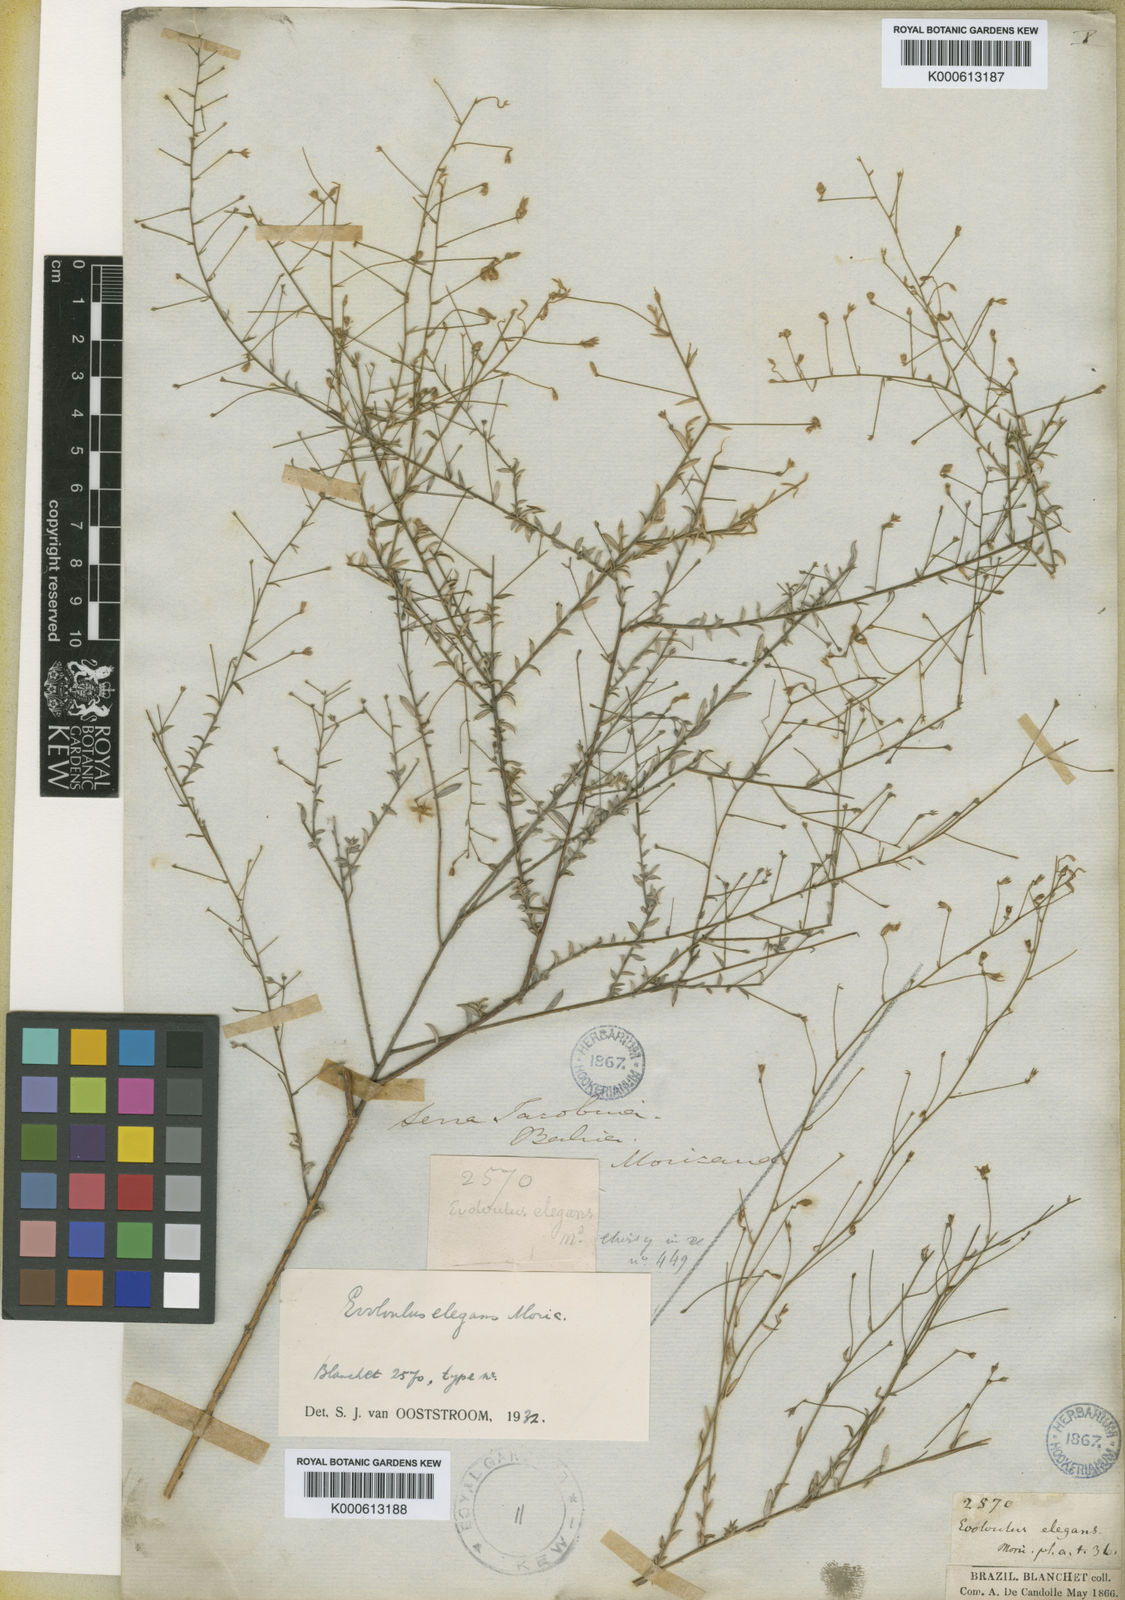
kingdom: Plantae
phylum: Tracheophyta
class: Magnoliopsida
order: Solanales
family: Convolvulaceae
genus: Evolvulus
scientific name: Evolvulus elegans
